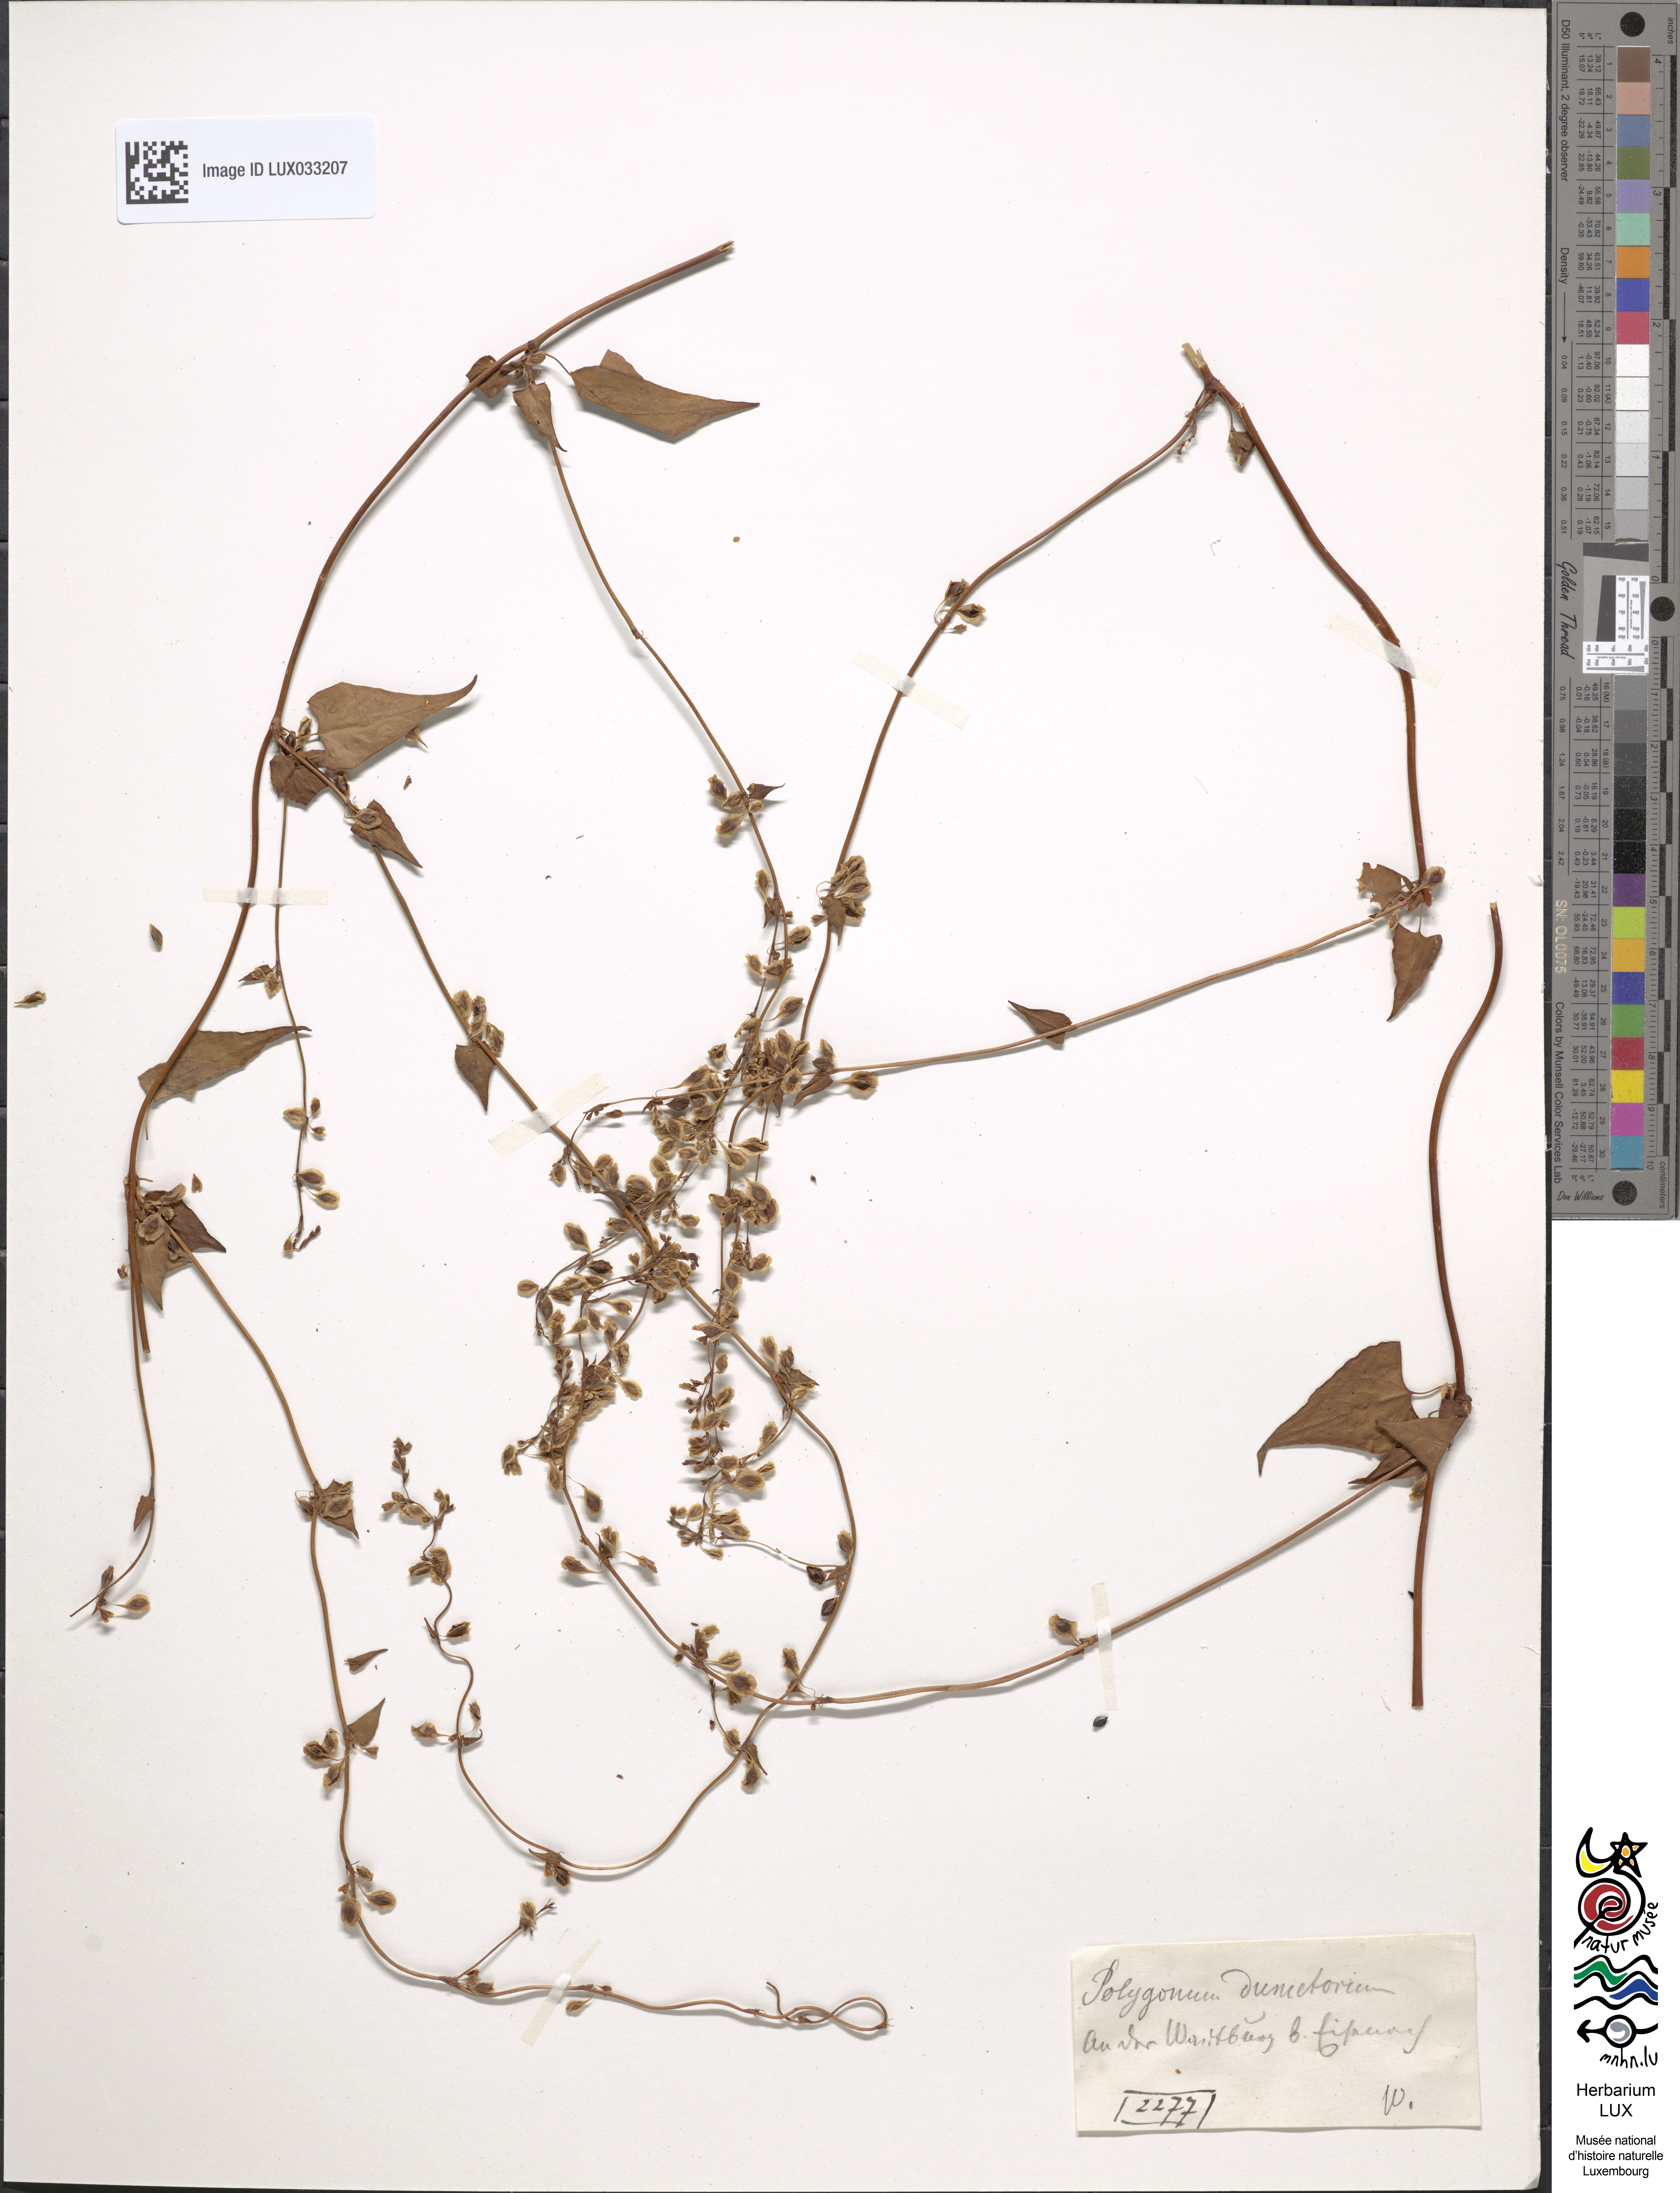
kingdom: Plantae
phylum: Tracheophyta
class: Magnoliopsida
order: Caryophyllales
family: Polygonaceae
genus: Fallopia
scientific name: Fallopia dumetorum
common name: Copse-bindweed
